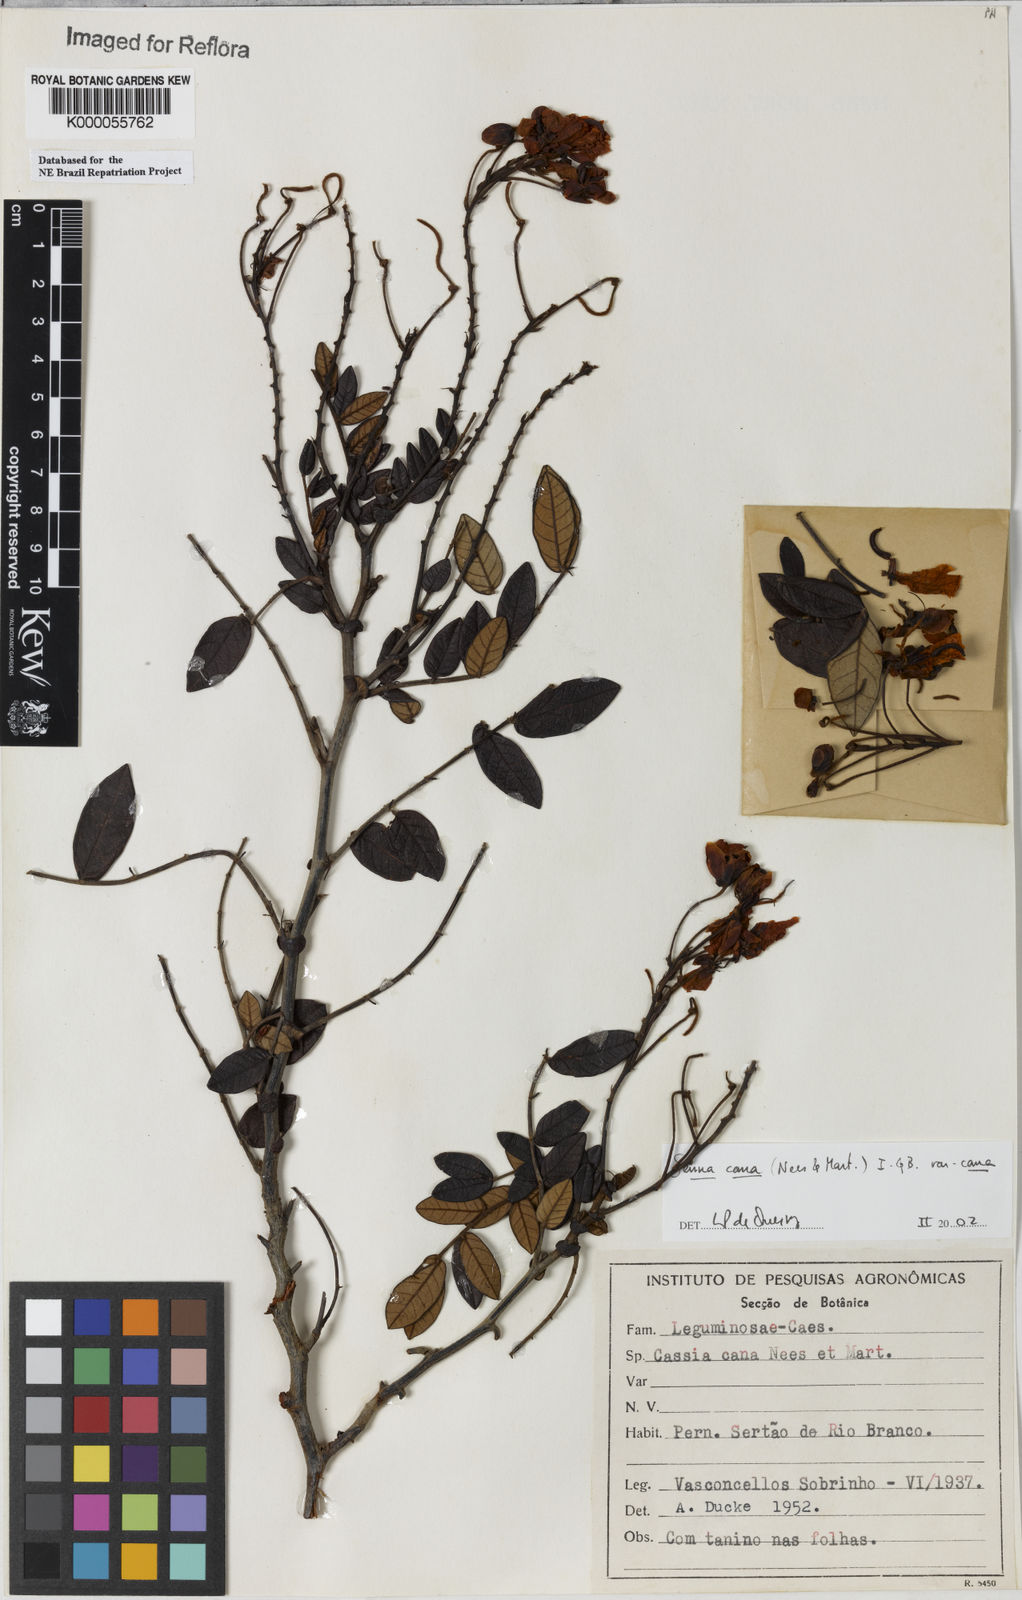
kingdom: Plantae
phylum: Tracheophyta
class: Magnoliopsida
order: Fabales
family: Fabaceae
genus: Senna
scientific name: Senna cana
